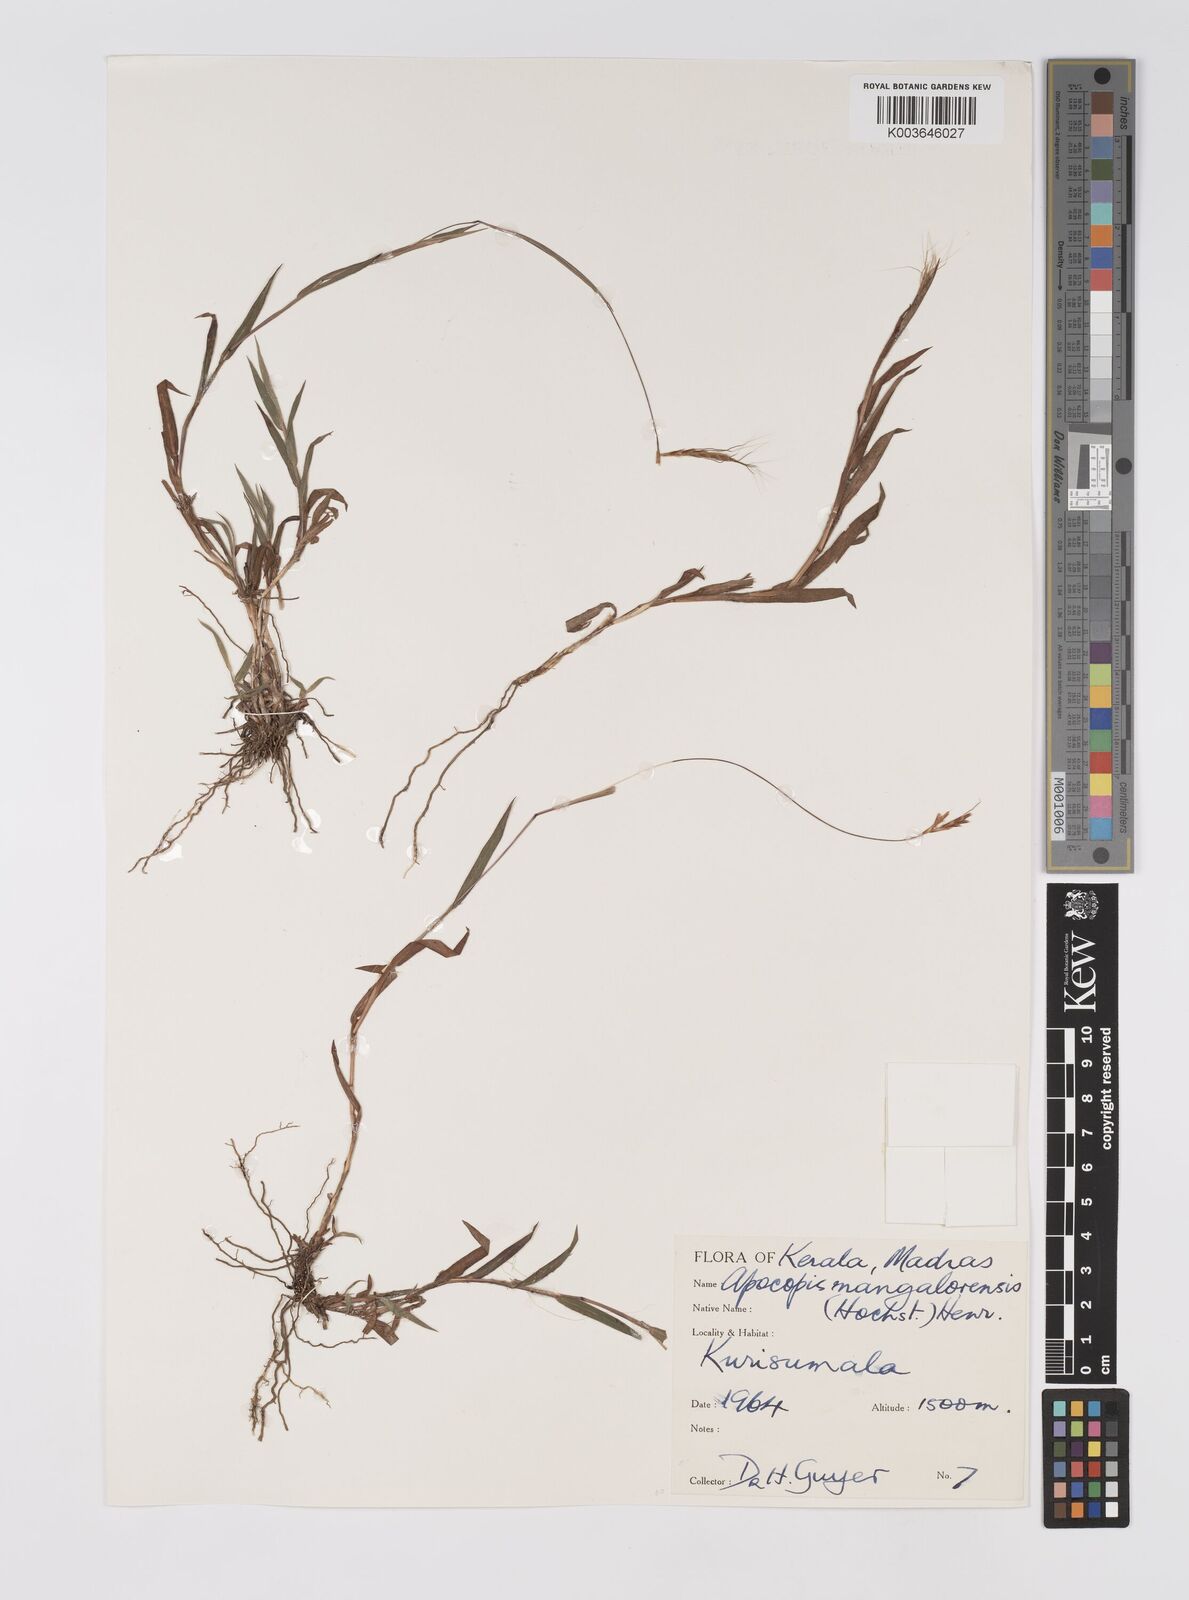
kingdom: Plantae
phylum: Tracheophyta
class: Liliopsida
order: Poales
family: Poaceae
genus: Apocopis
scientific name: Apocopis mangalorensis
